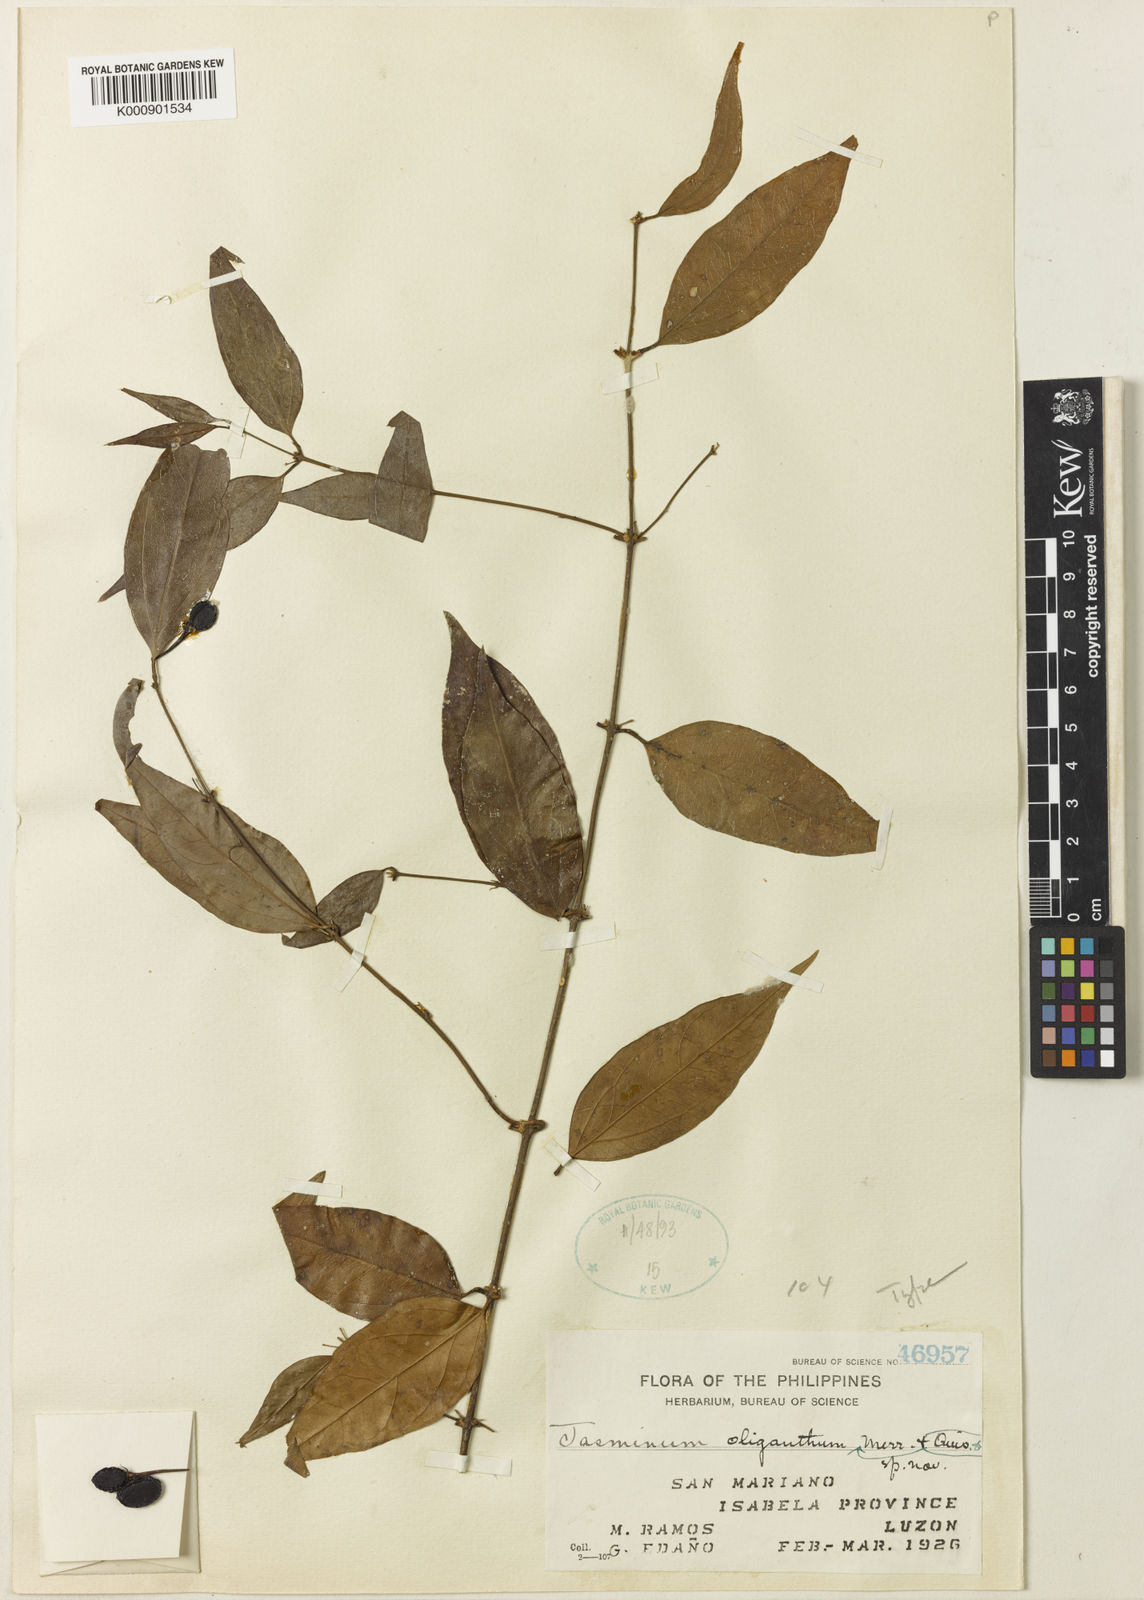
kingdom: Plantae
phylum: Tracheophyta
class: Magnoliopsida
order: Lamiales
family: Oleaceae
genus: Jasminum
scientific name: Jasminum oliganthum
